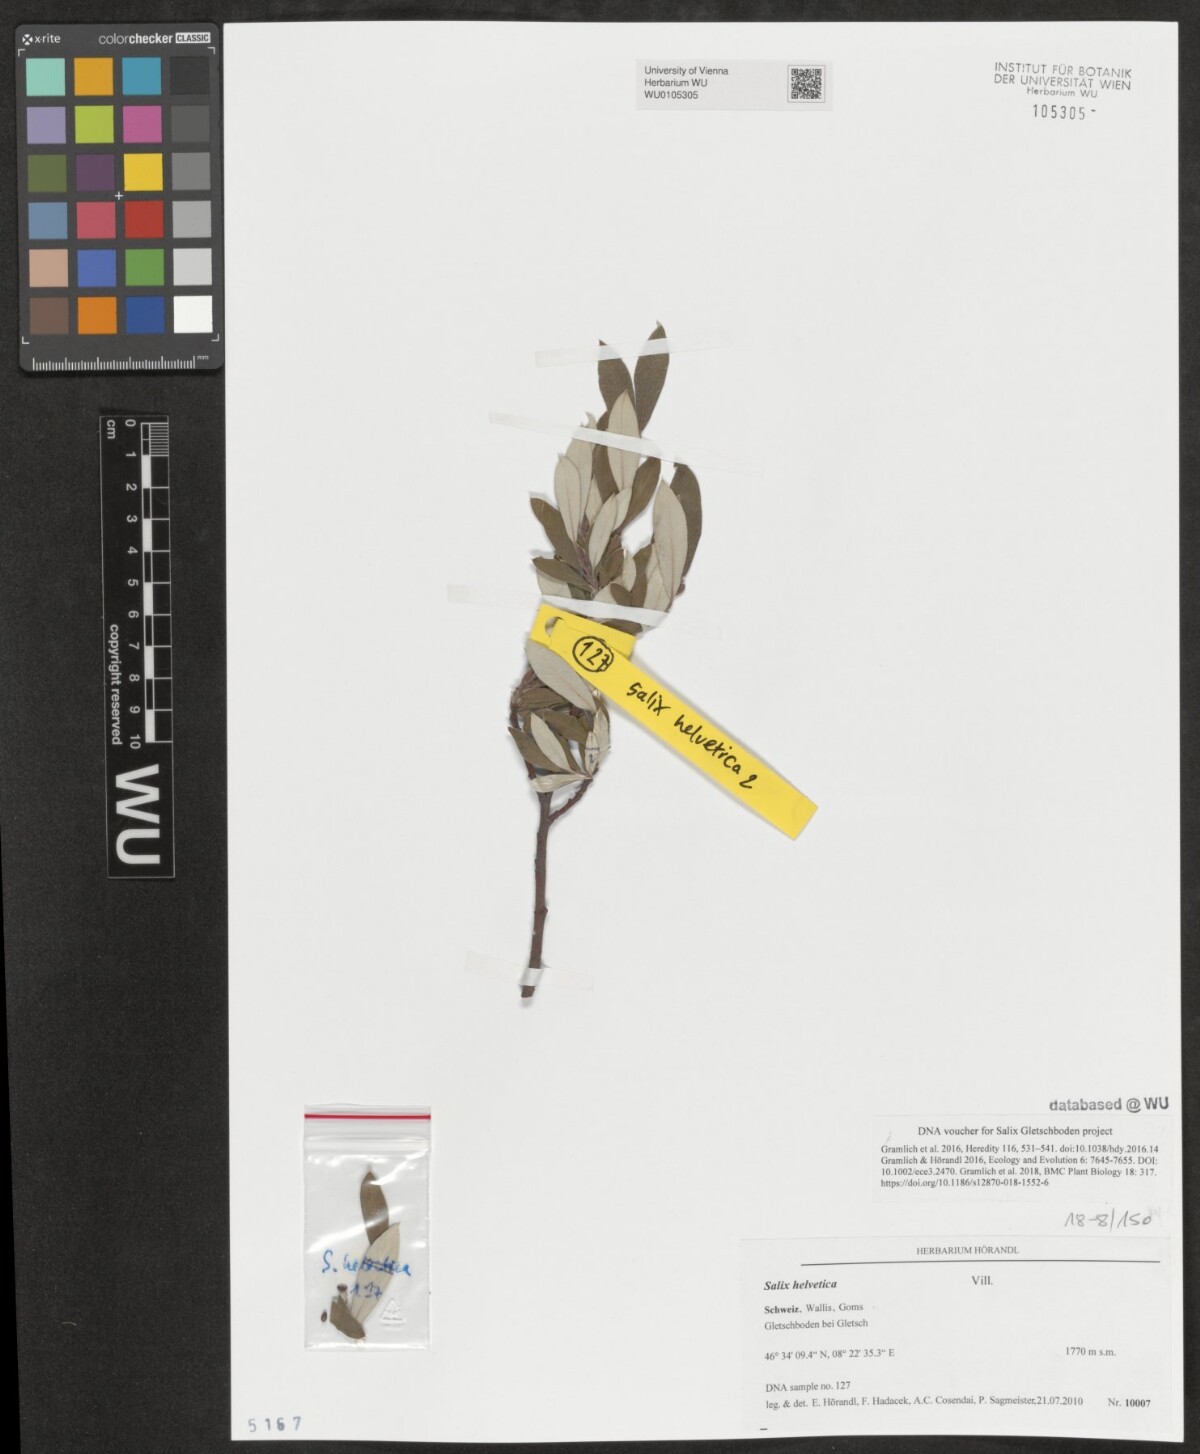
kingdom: Plantae
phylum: Tracheophyta
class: Magnoliopsida
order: Malpighiales
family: Salicaceae
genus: Salix
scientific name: Salix helvetica
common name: Swiss willow
